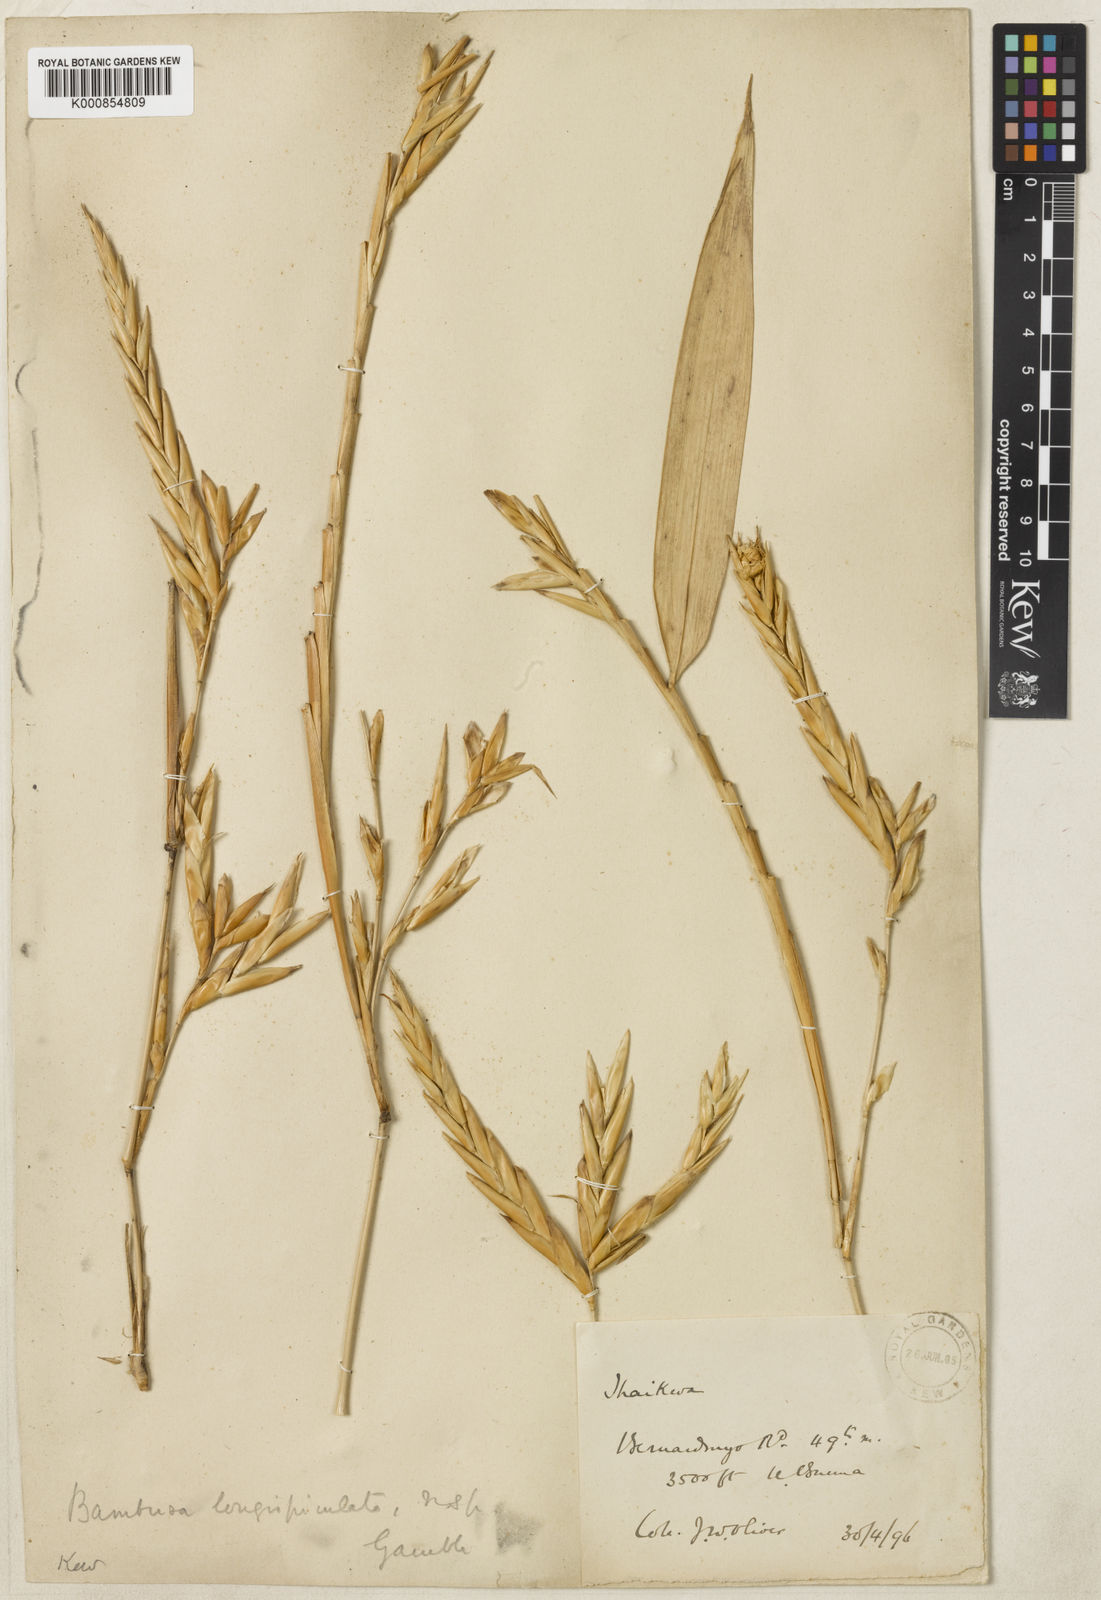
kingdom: Plantae
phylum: Tracheophyta
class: Liliopsida
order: Poales
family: Poaceae
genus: Bambusa
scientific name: Bambusa
